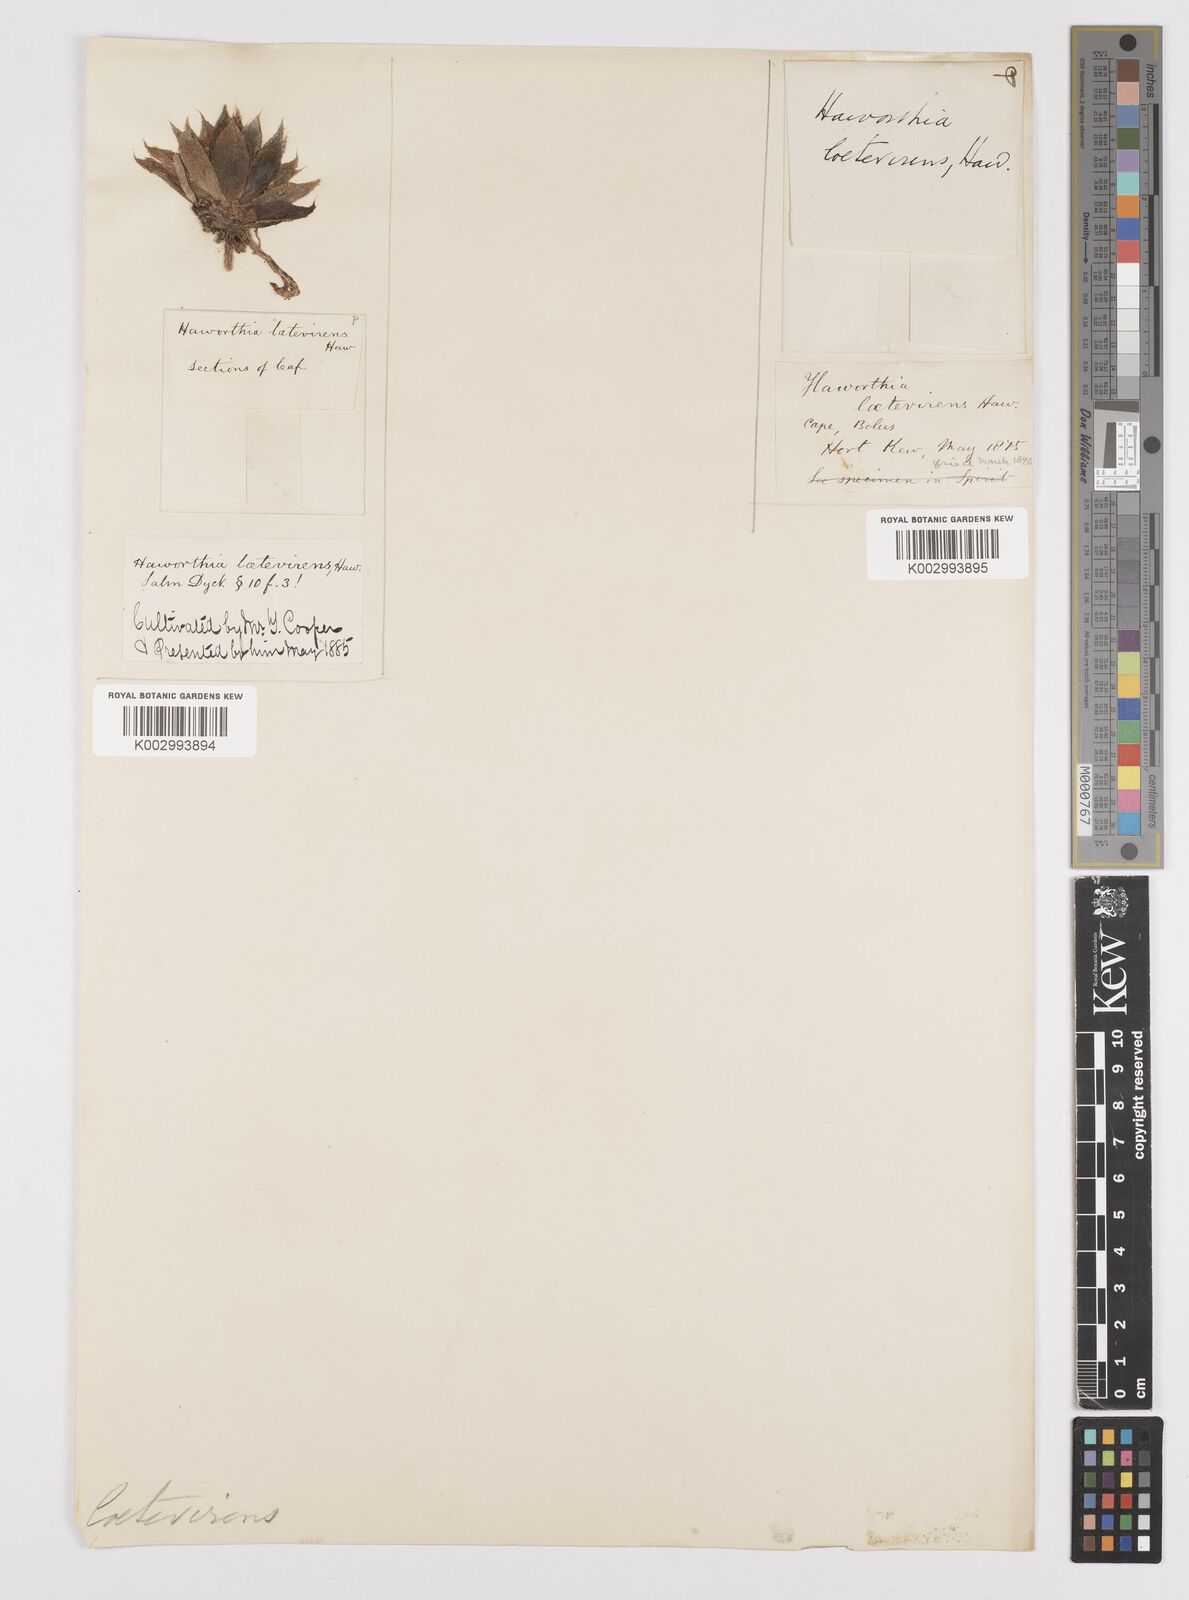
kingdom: Plantae
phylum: Tracheophyta
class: Liliopsida
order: Asparagales
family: Asphodelaceae
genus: Haworthia
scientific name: Haworthia turgida
